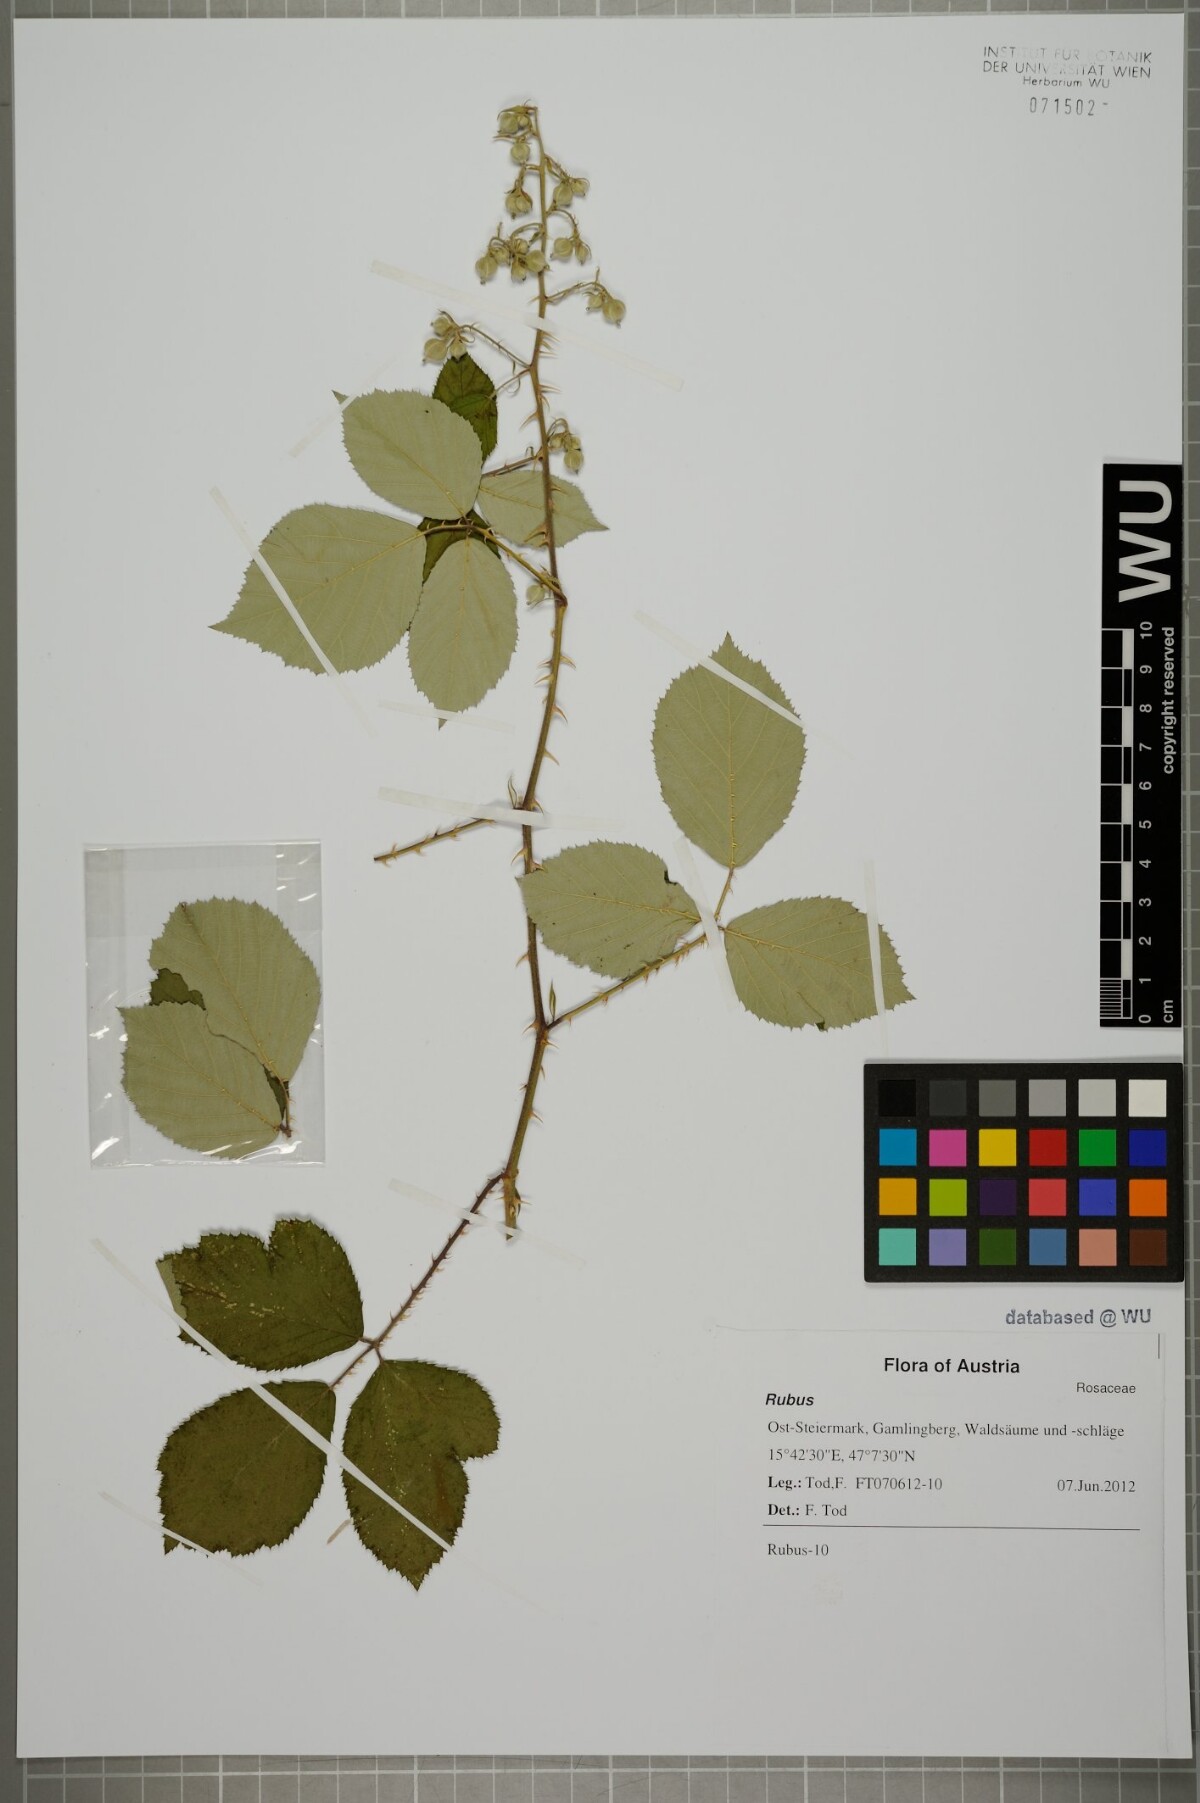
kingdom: Plantae
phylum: Tracheophyta
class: Magnoliopsida
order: Rosales
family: Rosaceae
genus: Rubus
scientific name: Rubus bifrons
